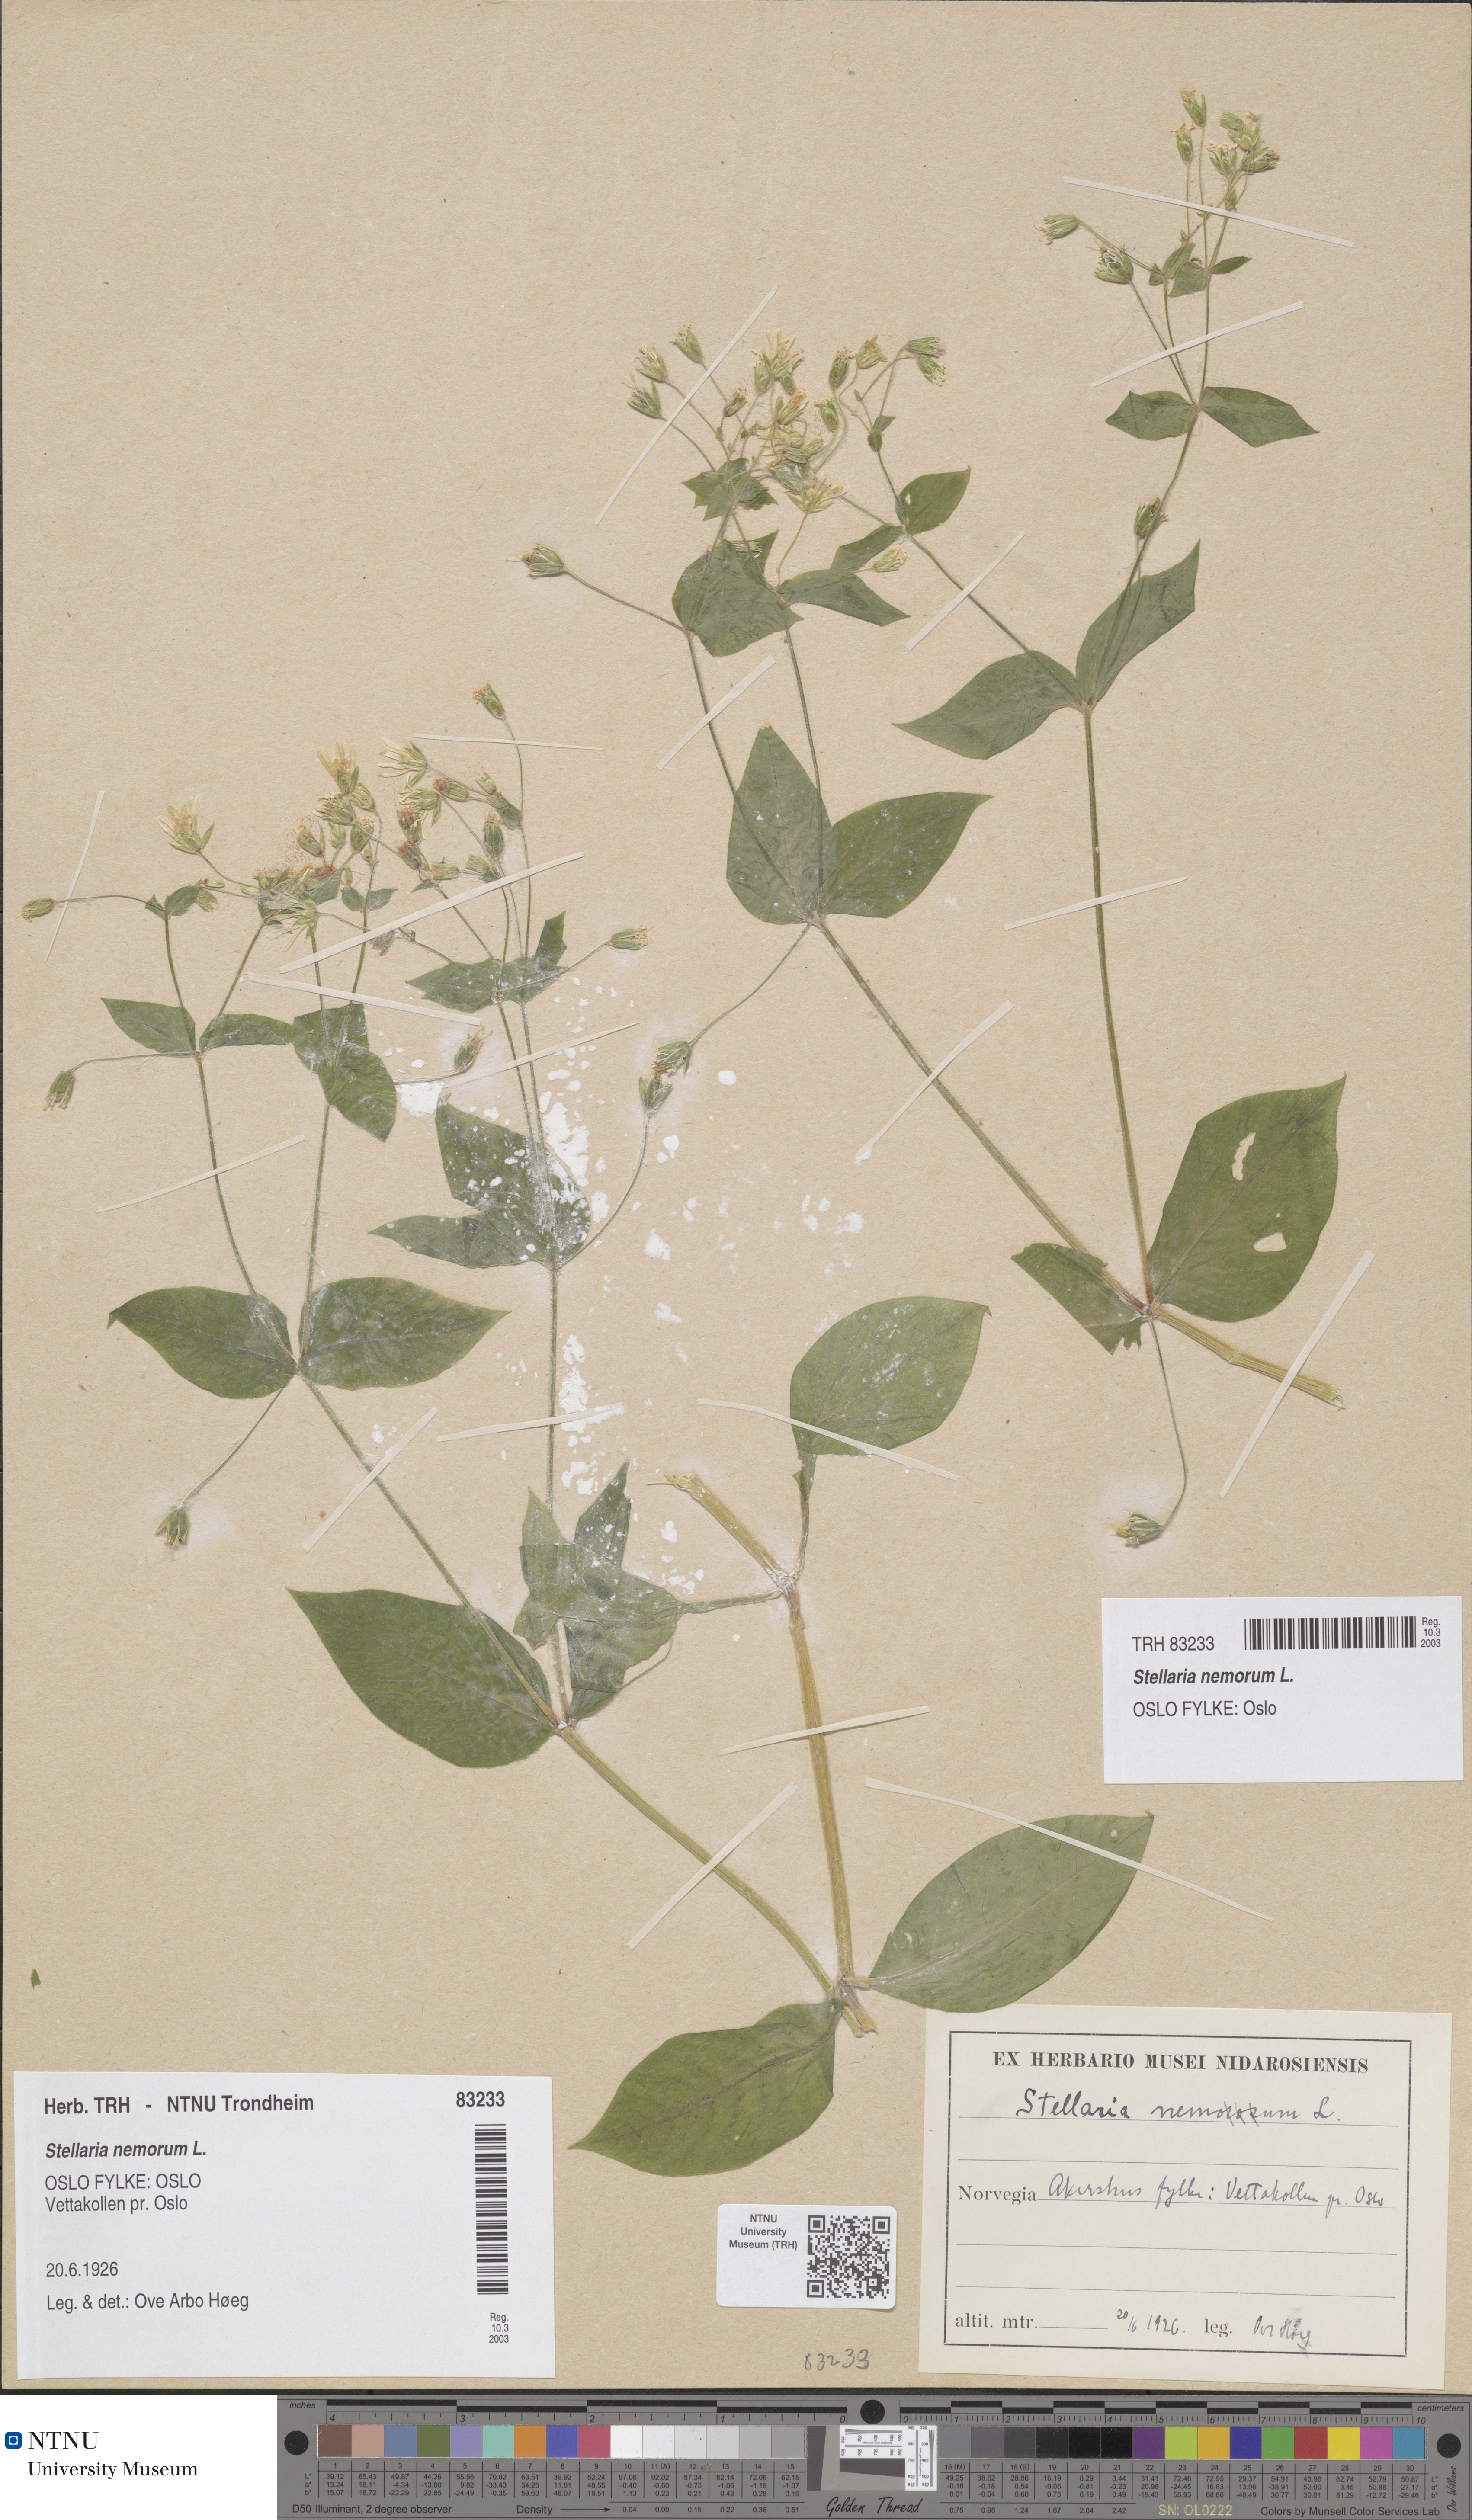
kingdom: Plantae
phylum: Tracheophyta
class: Magnoliopsida
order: Caryophyllales
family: Caryophyllaceae
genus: Stellaria
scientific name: Stellaria nemorum
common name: Wood stitchwort
